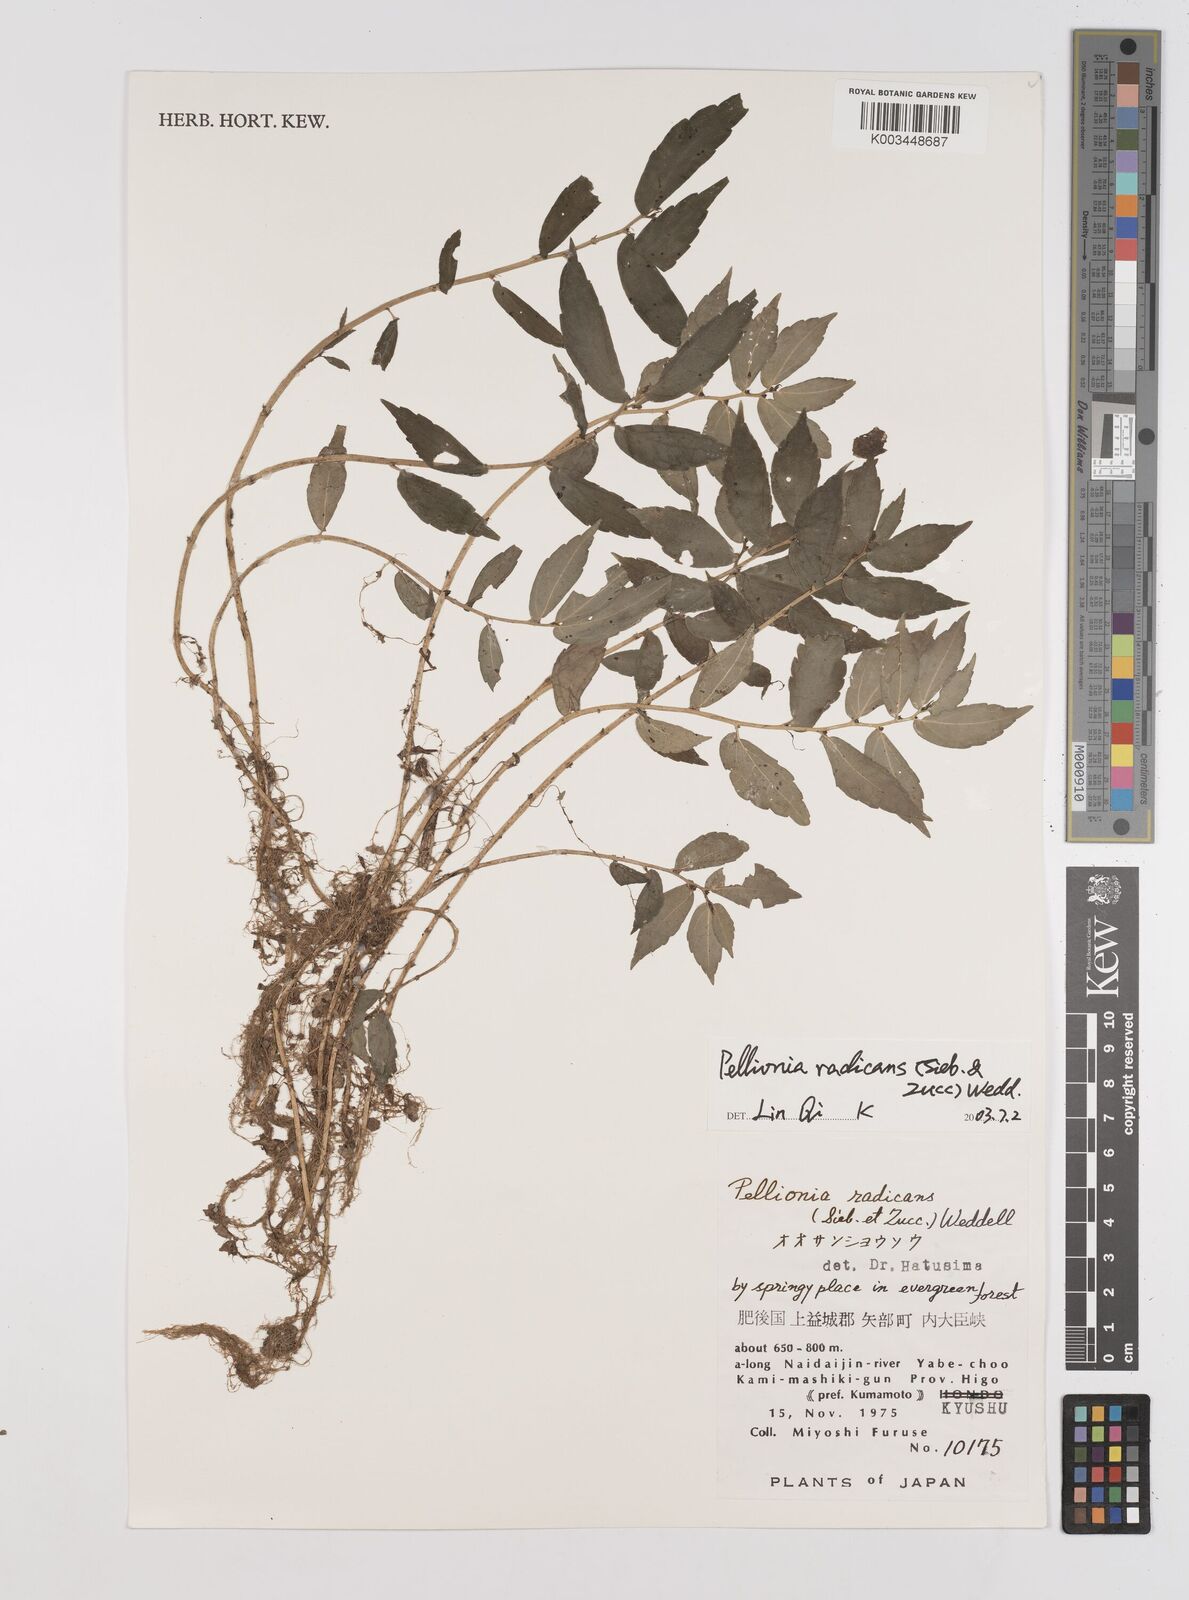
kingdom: Plantae
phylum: Tracheophyta
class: Magnoliopsida
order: Rosales
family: Urticaceae
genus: Elatostema
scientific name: Elatostema radicans
